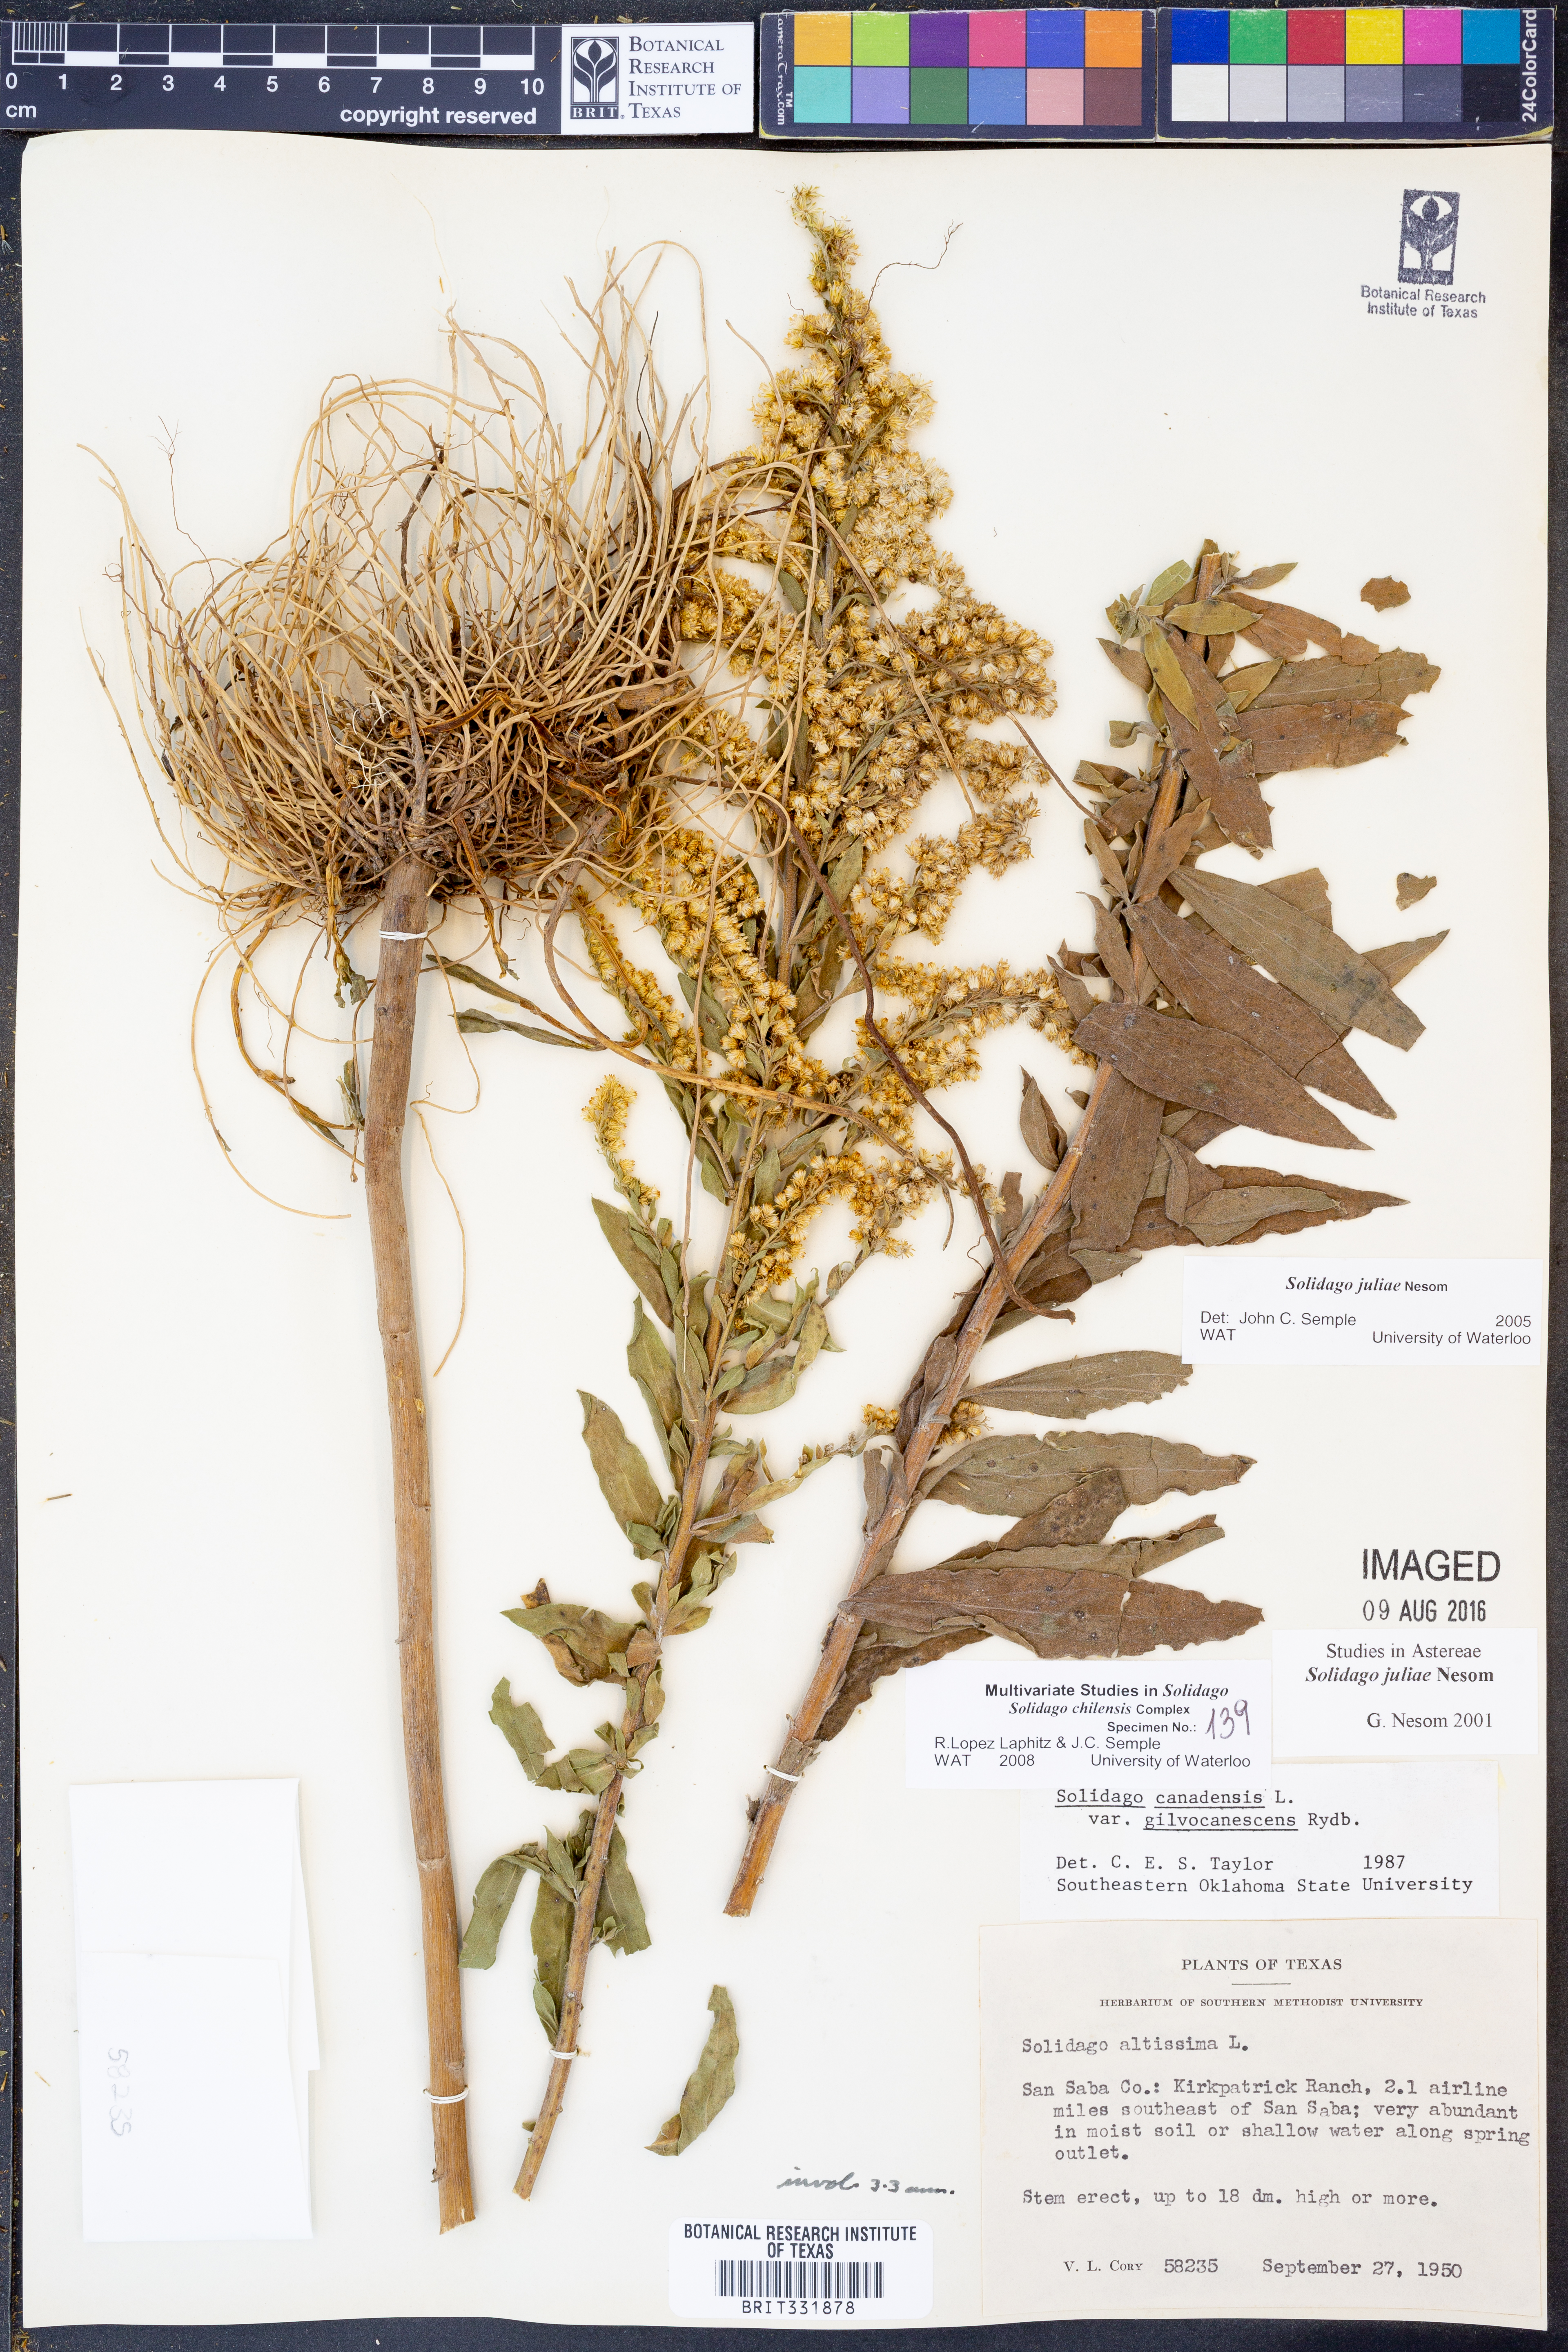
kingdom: Plantae
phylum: Tracheophyta
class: Magnoliopsida
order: Asterales
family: Asteraceae
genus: Solidago
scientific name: Solidago juliae
